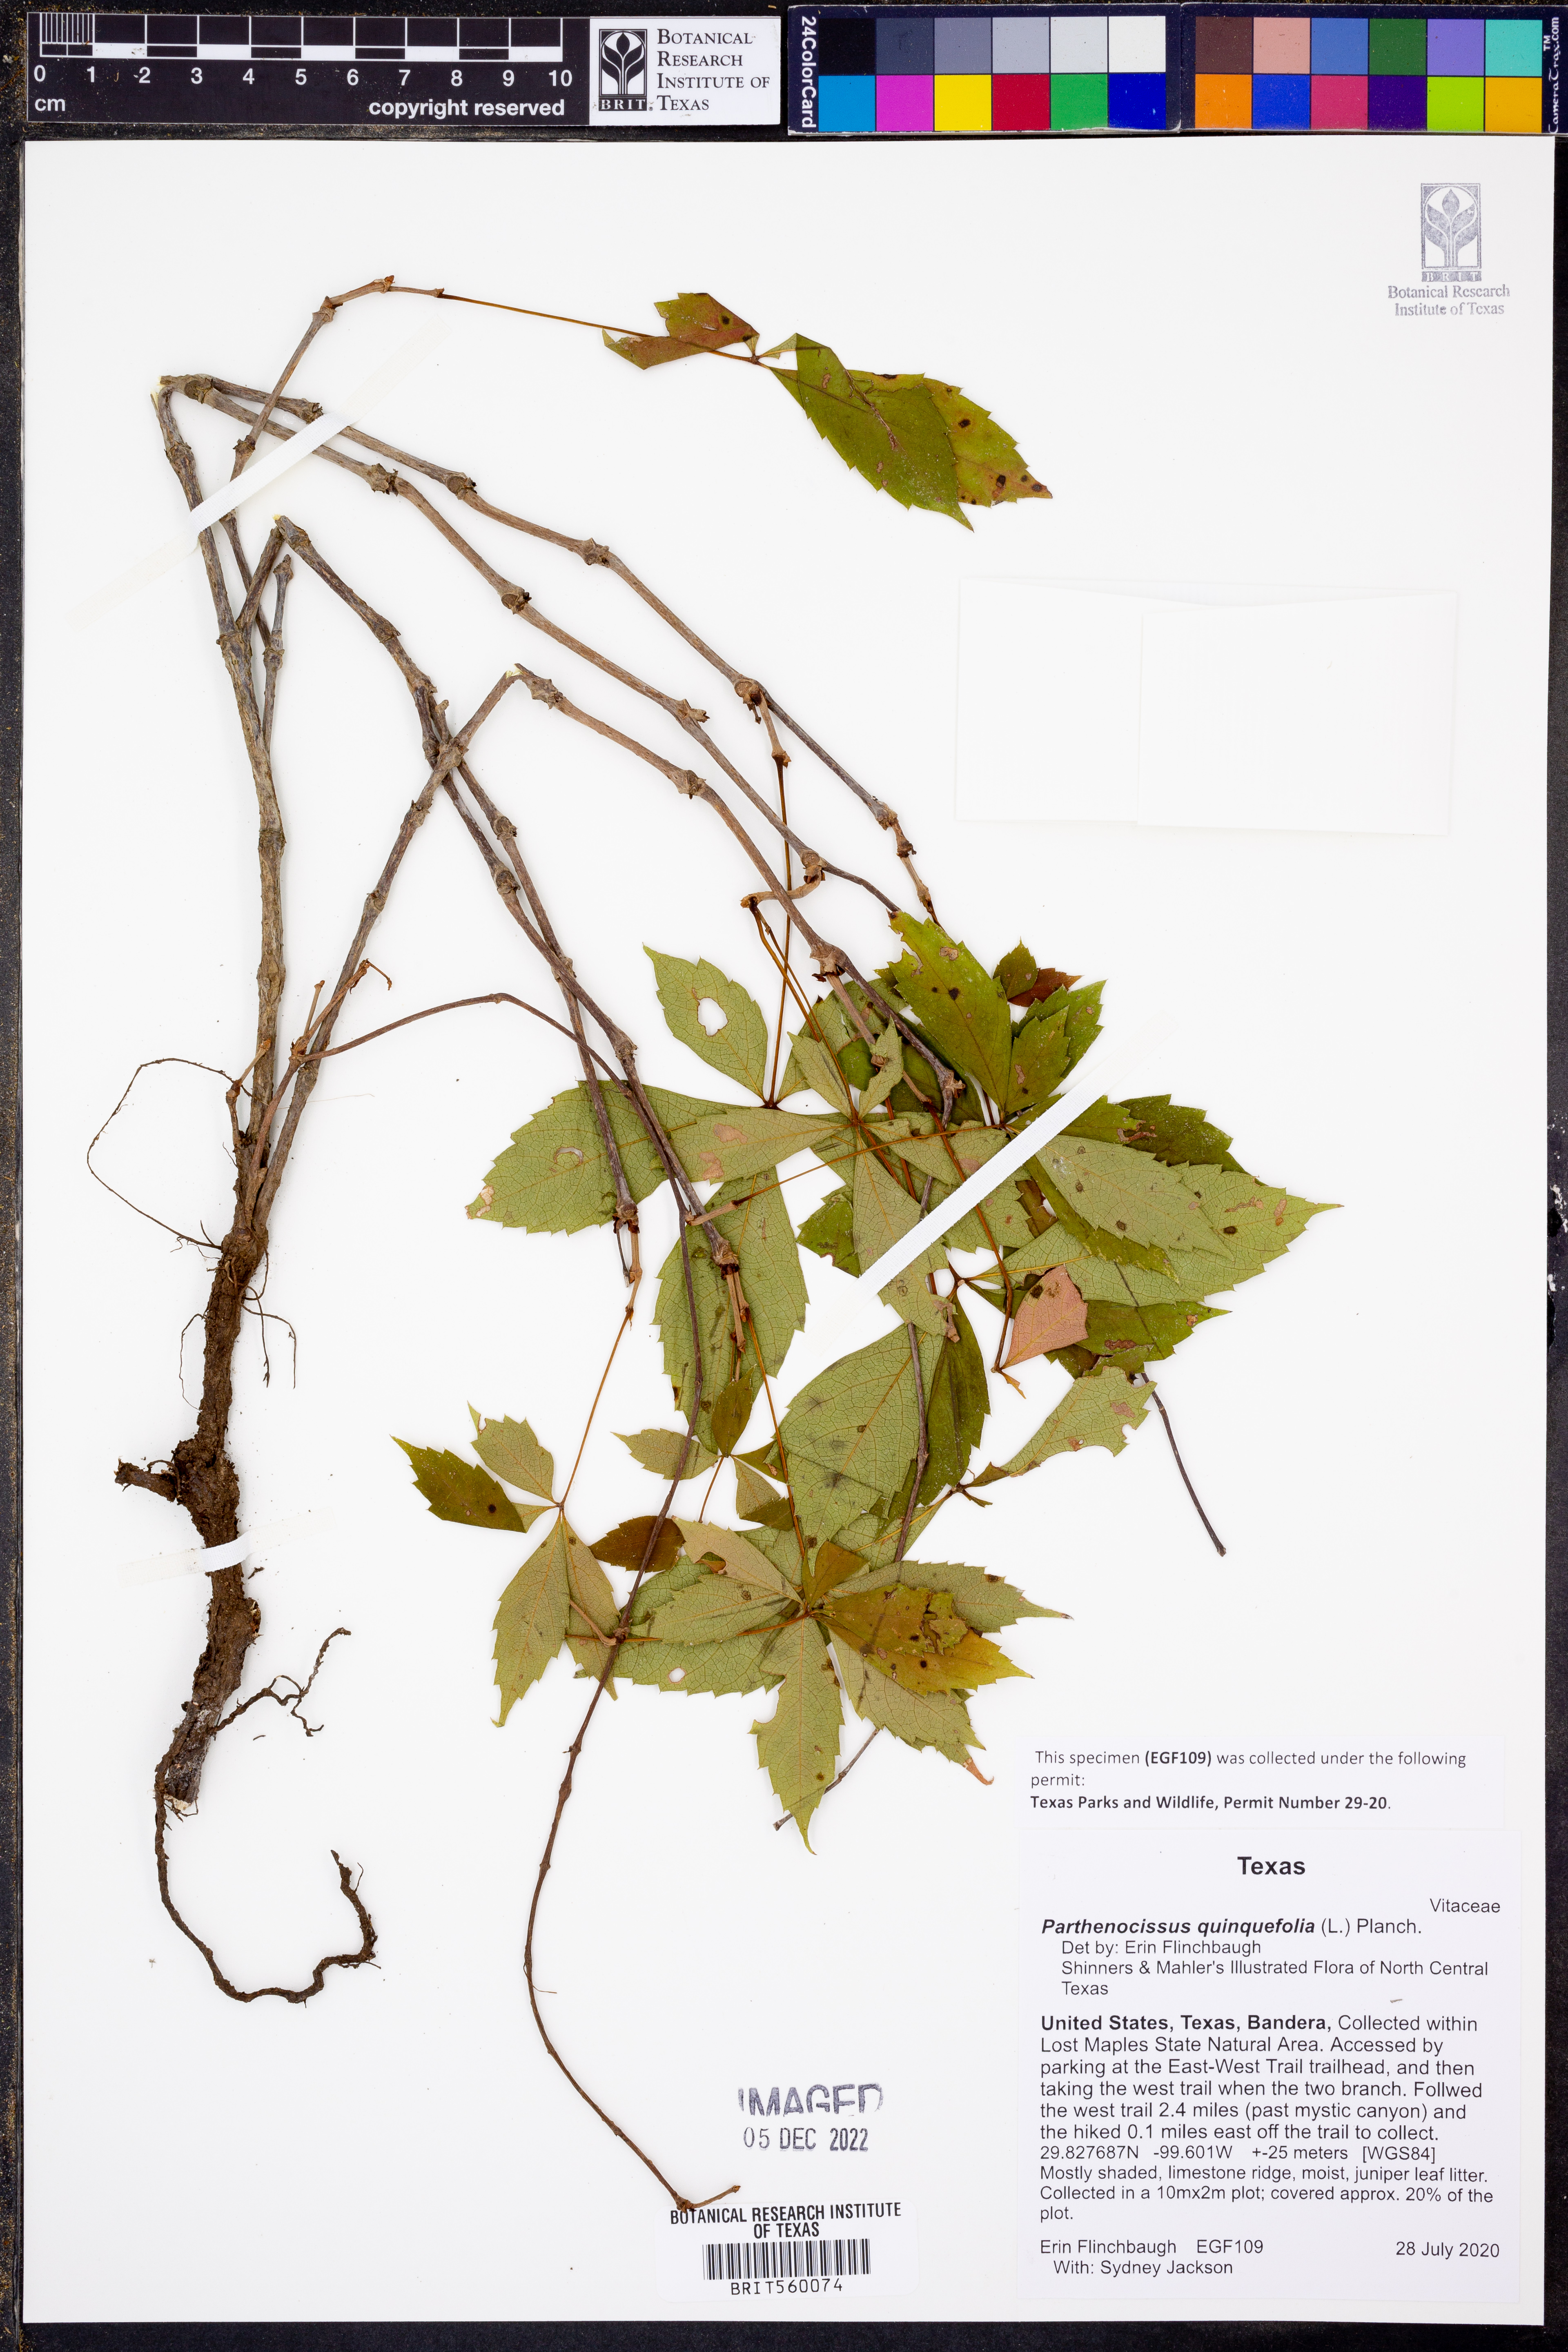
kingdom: Plantae
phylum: Tracheophyta
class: Magnoliopsida
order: Vitales
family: Vitaceae
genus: Parthenocissus
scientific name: Parthenocissus quinquefolia
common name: Virginia-creeper
